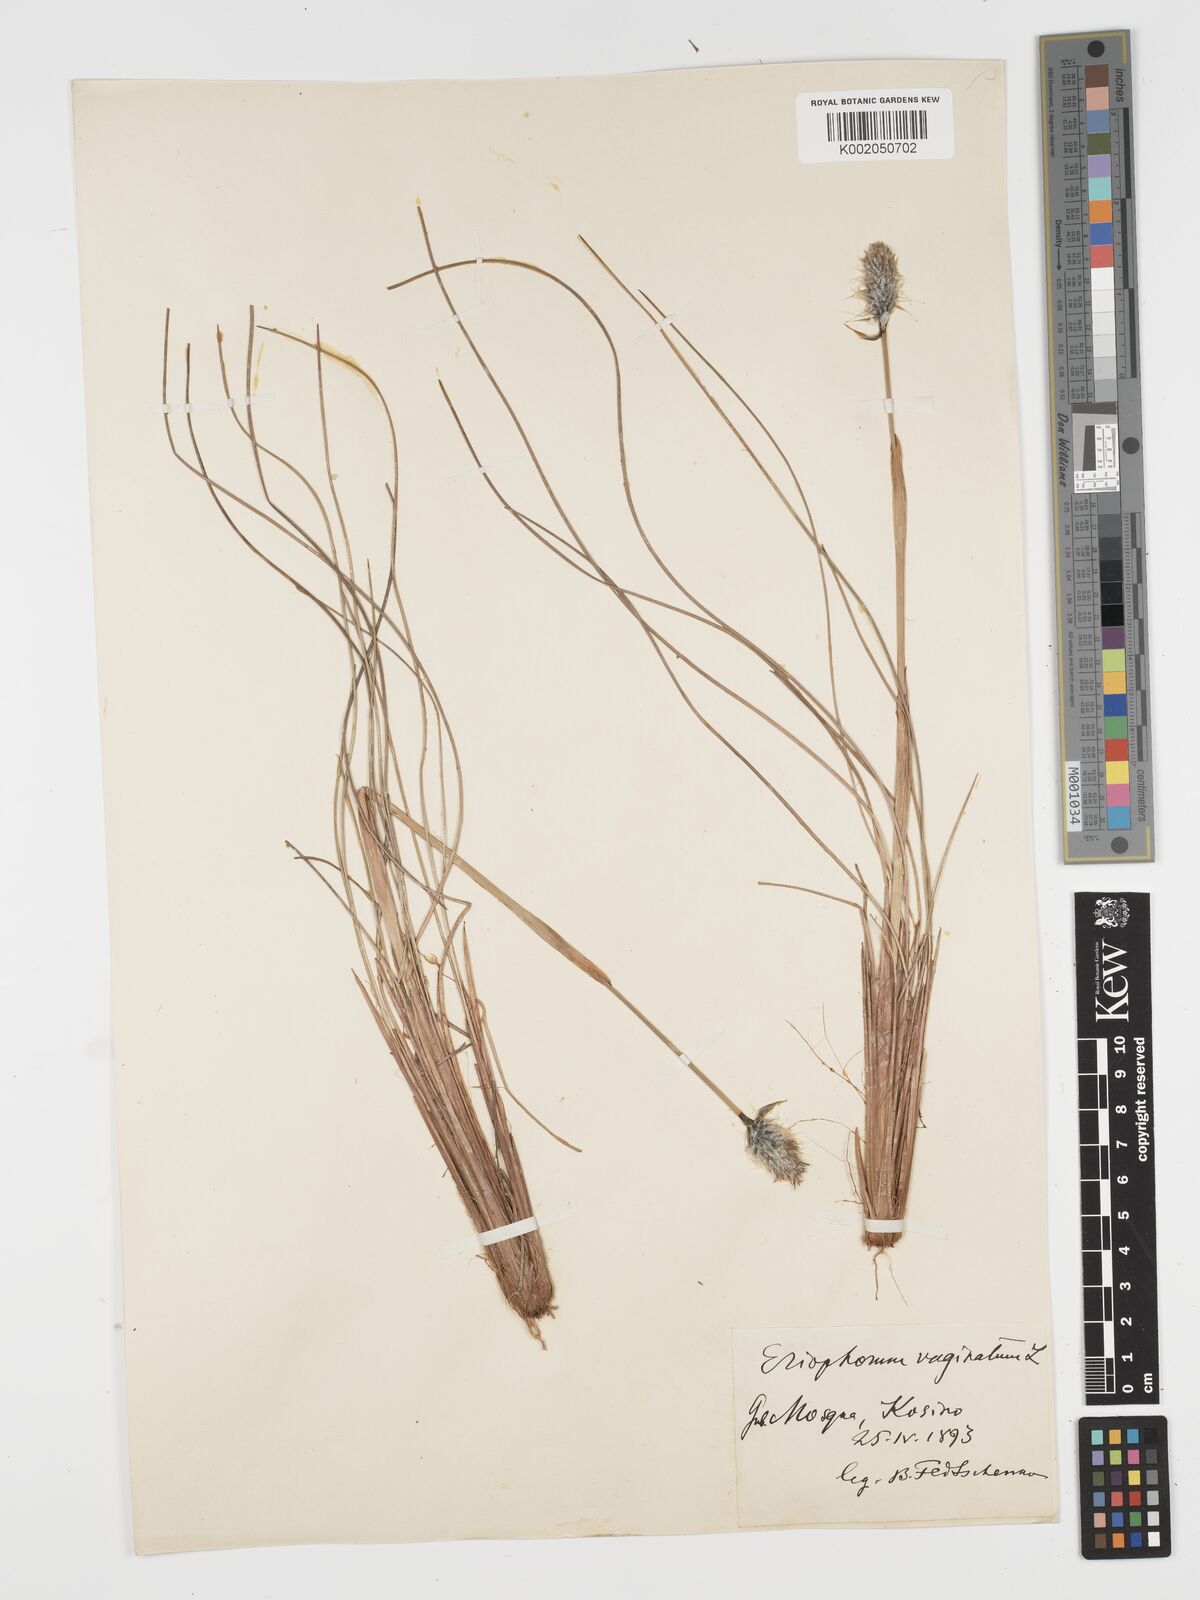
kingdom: Plantae
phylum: Tracheophyta
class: Liliopsida
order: Poales
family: Cyperaceae
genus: Eriophorum
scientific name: Eriophorum vaginatum
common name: Hare's-tail cottongrass
